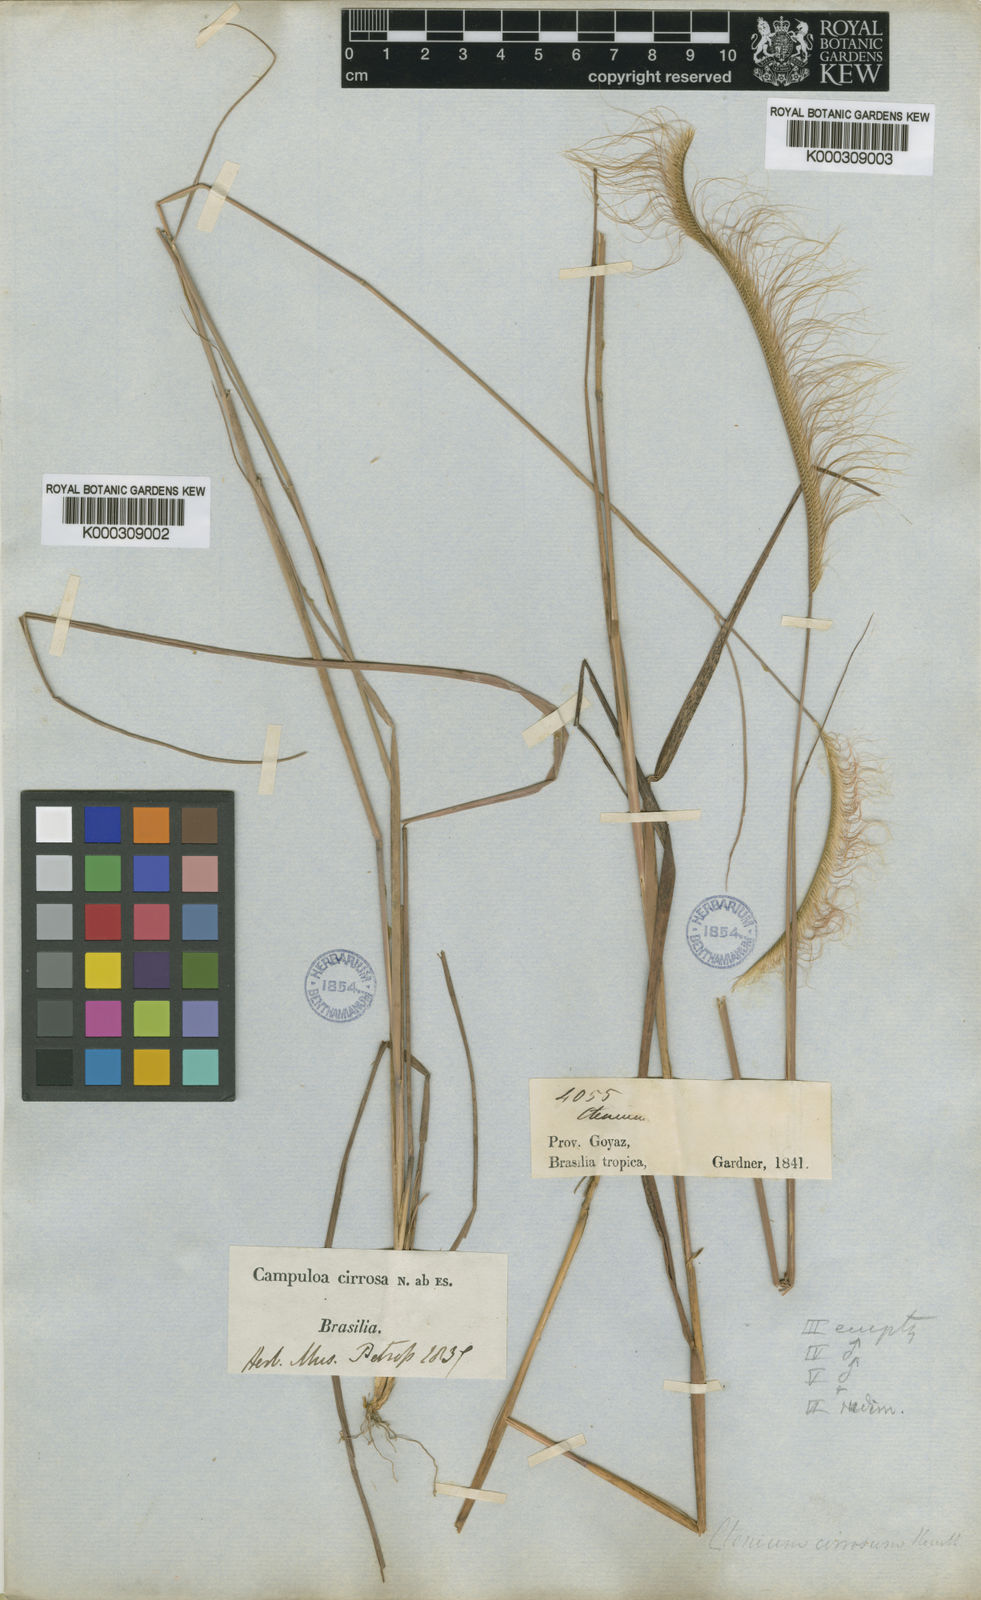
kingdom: Plantae
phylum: Tracheophyta
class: Liliopsida
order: Poales
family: Poaceae
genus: Ctenium
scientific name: Ctenium cirrhosum
